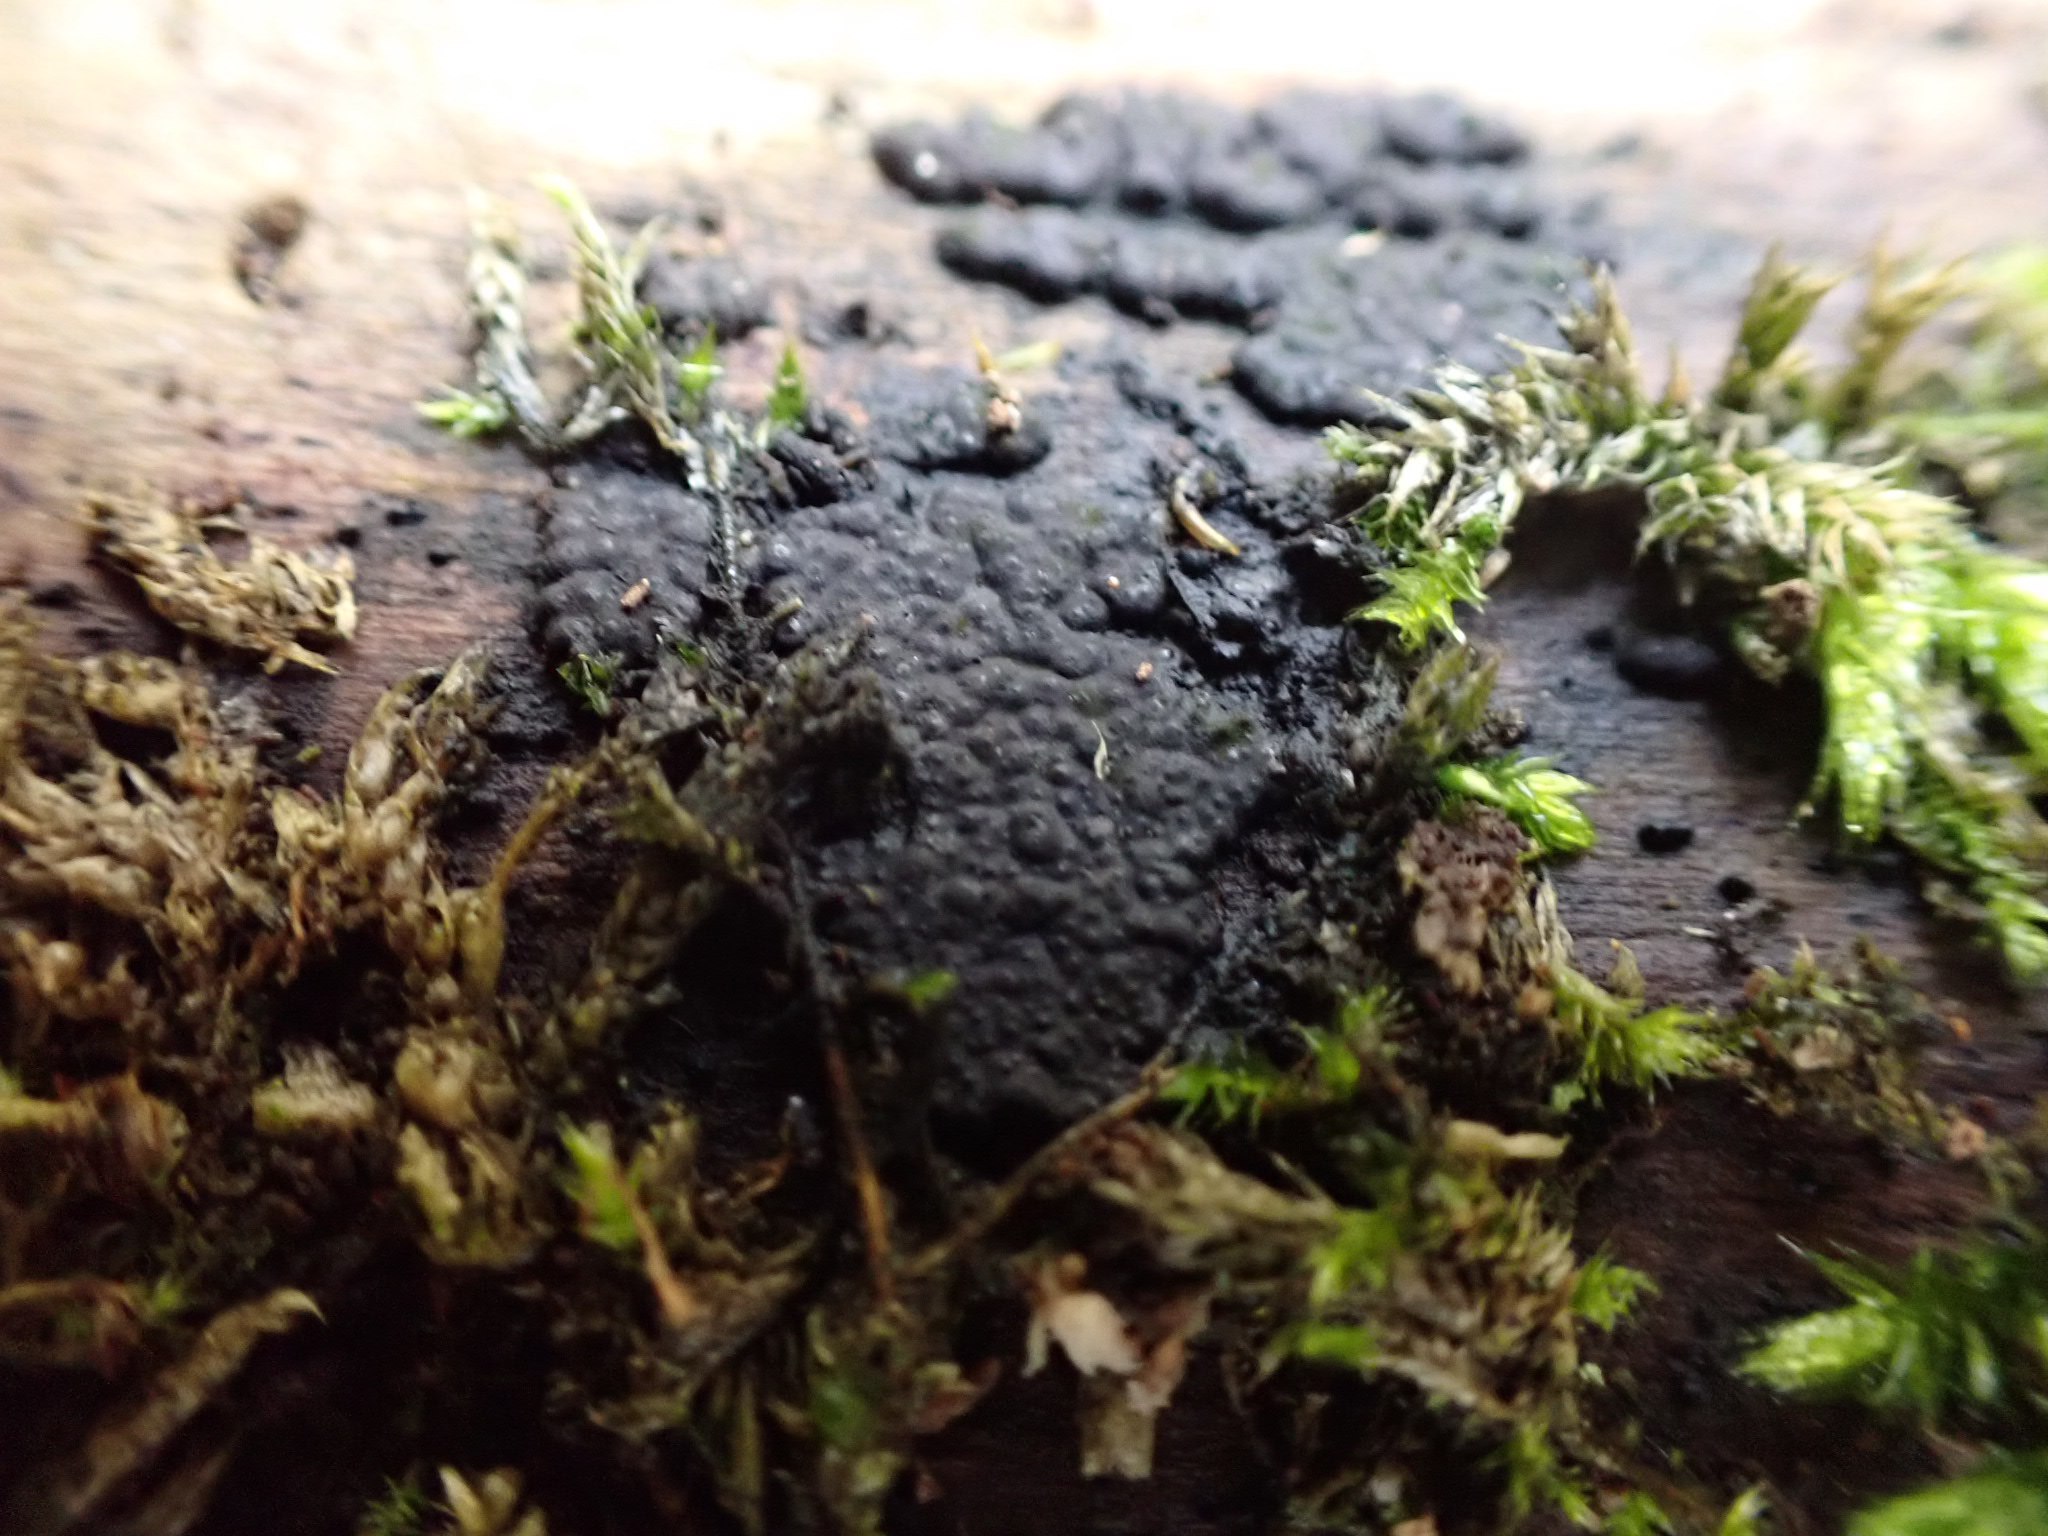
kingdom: Fungi
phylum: Ascomycota
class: Sordariomycetes
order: Xylariales
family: Xylariaceae
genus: Nemania
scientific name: Nemania
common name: kuldyne
